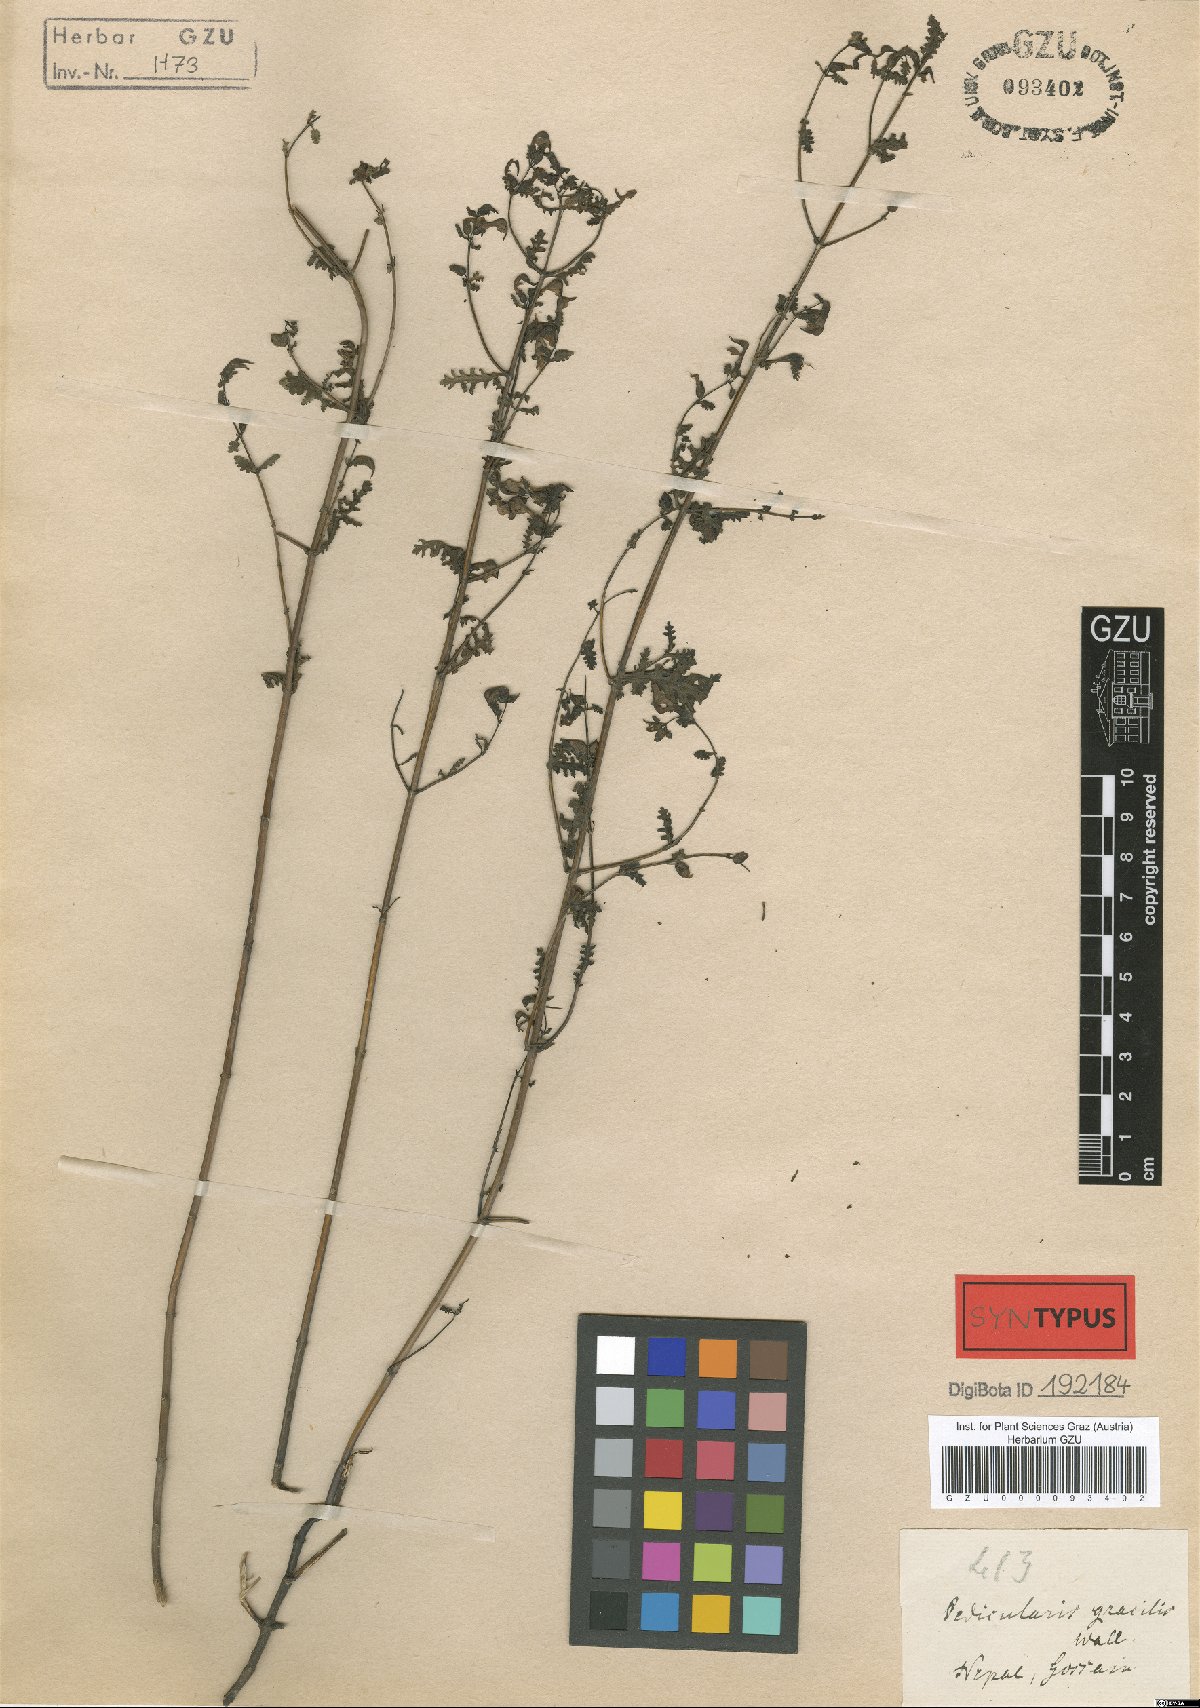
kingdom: Plantae
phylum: Tracheophyta
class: Magnoliopsida
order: Lamiales
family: Orobanchaceae
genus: Pedicularis
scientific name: Pedicularis gracilis
